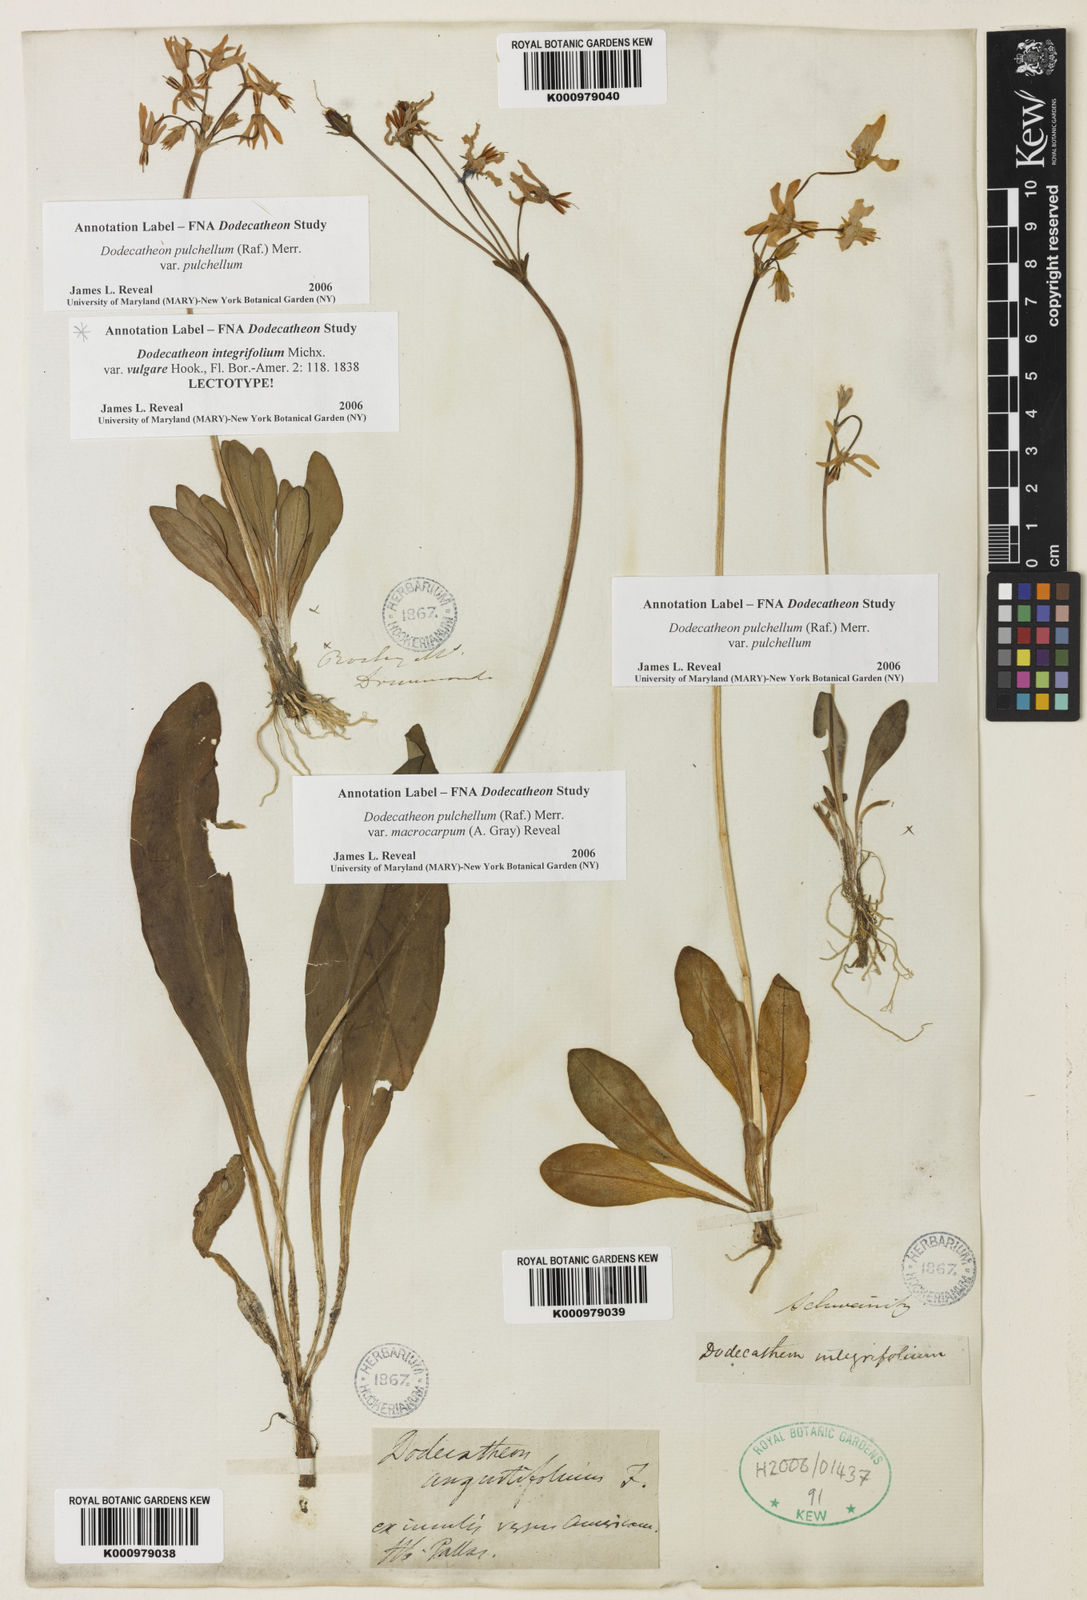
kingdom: Plantae
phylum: Tracheophyta
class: Magnoliopsida
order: Ericales
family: Primulaceae
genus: Dodecatheon
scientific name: Dodecatheon pulchellum
